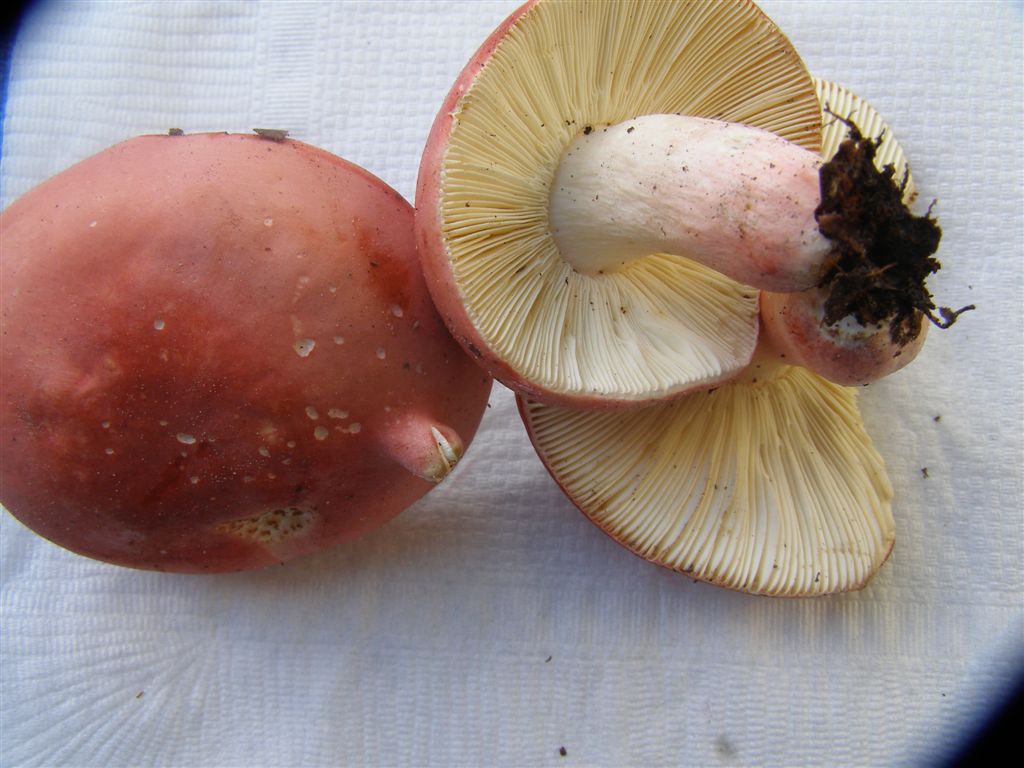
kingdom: Fungi
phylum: Basidiomycota
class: Agaricomycetes
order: Russulales
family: Russulaceae
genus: Russula
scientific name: Russula rosea
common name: fastkødet skørhat
